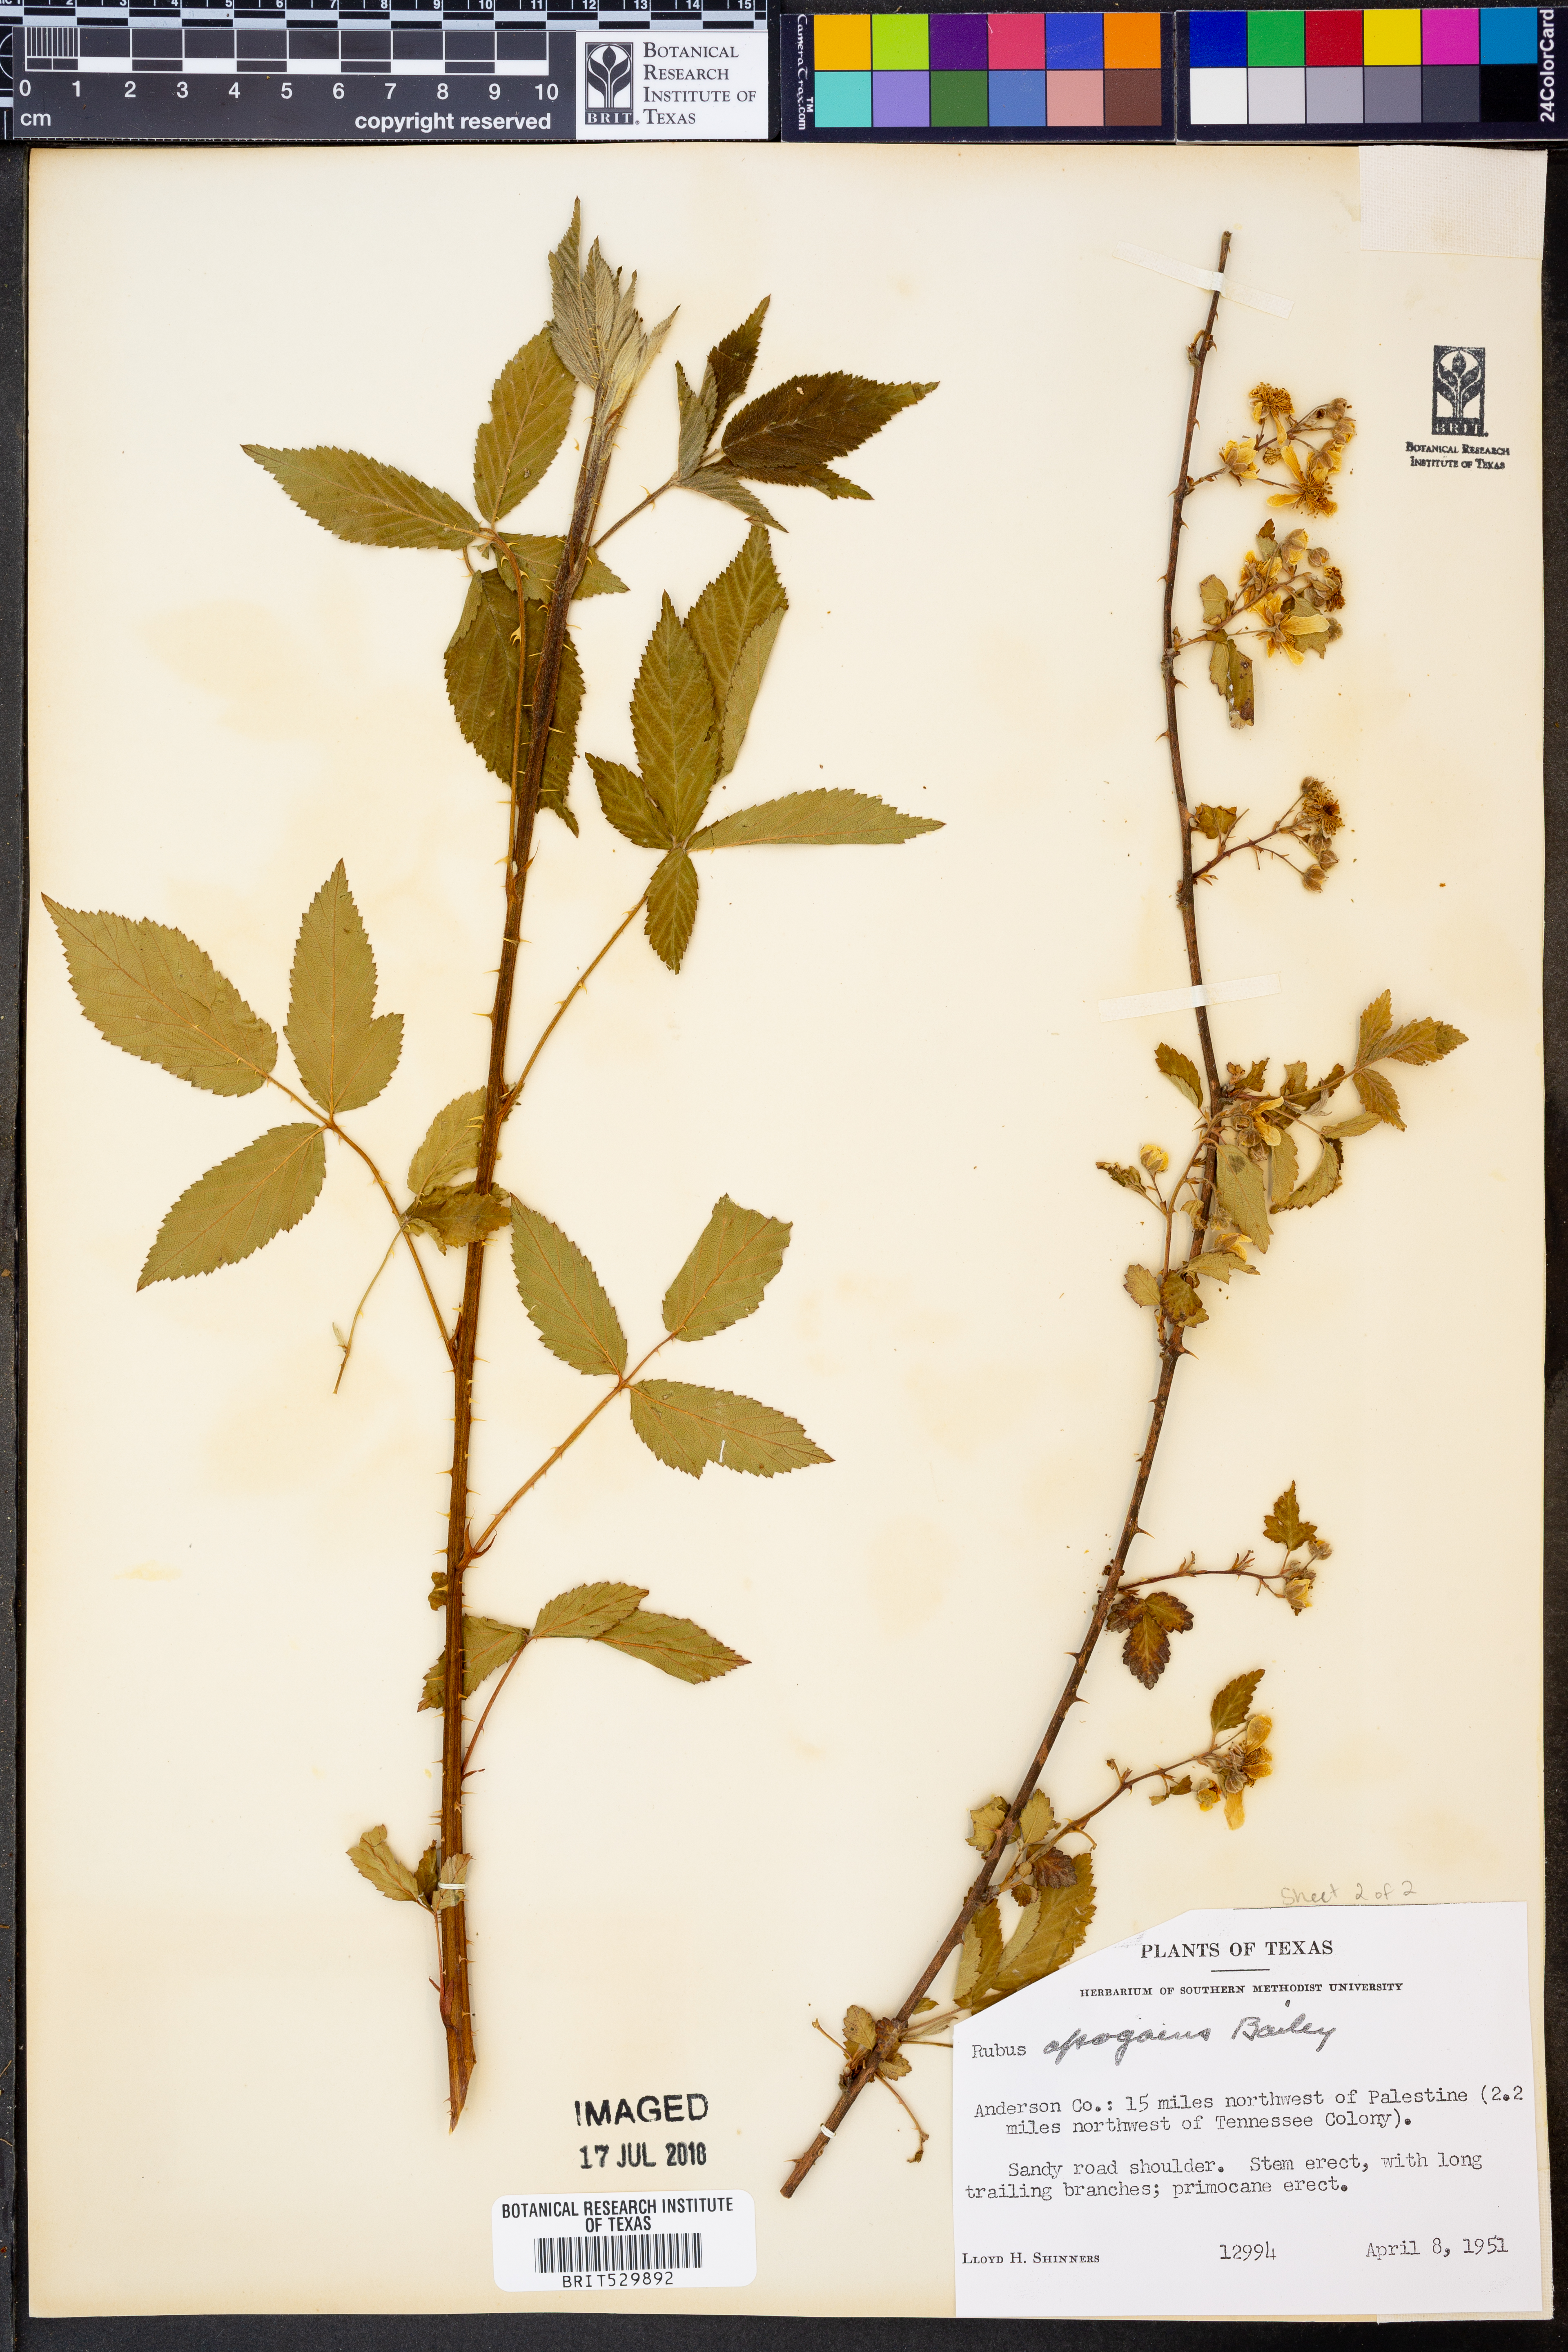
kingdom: Plantae
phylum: Tracheophyta
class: Magnoliopsida
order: Rosales
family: Rosaceae
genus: Rubus
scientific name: Rubus apogaeus
